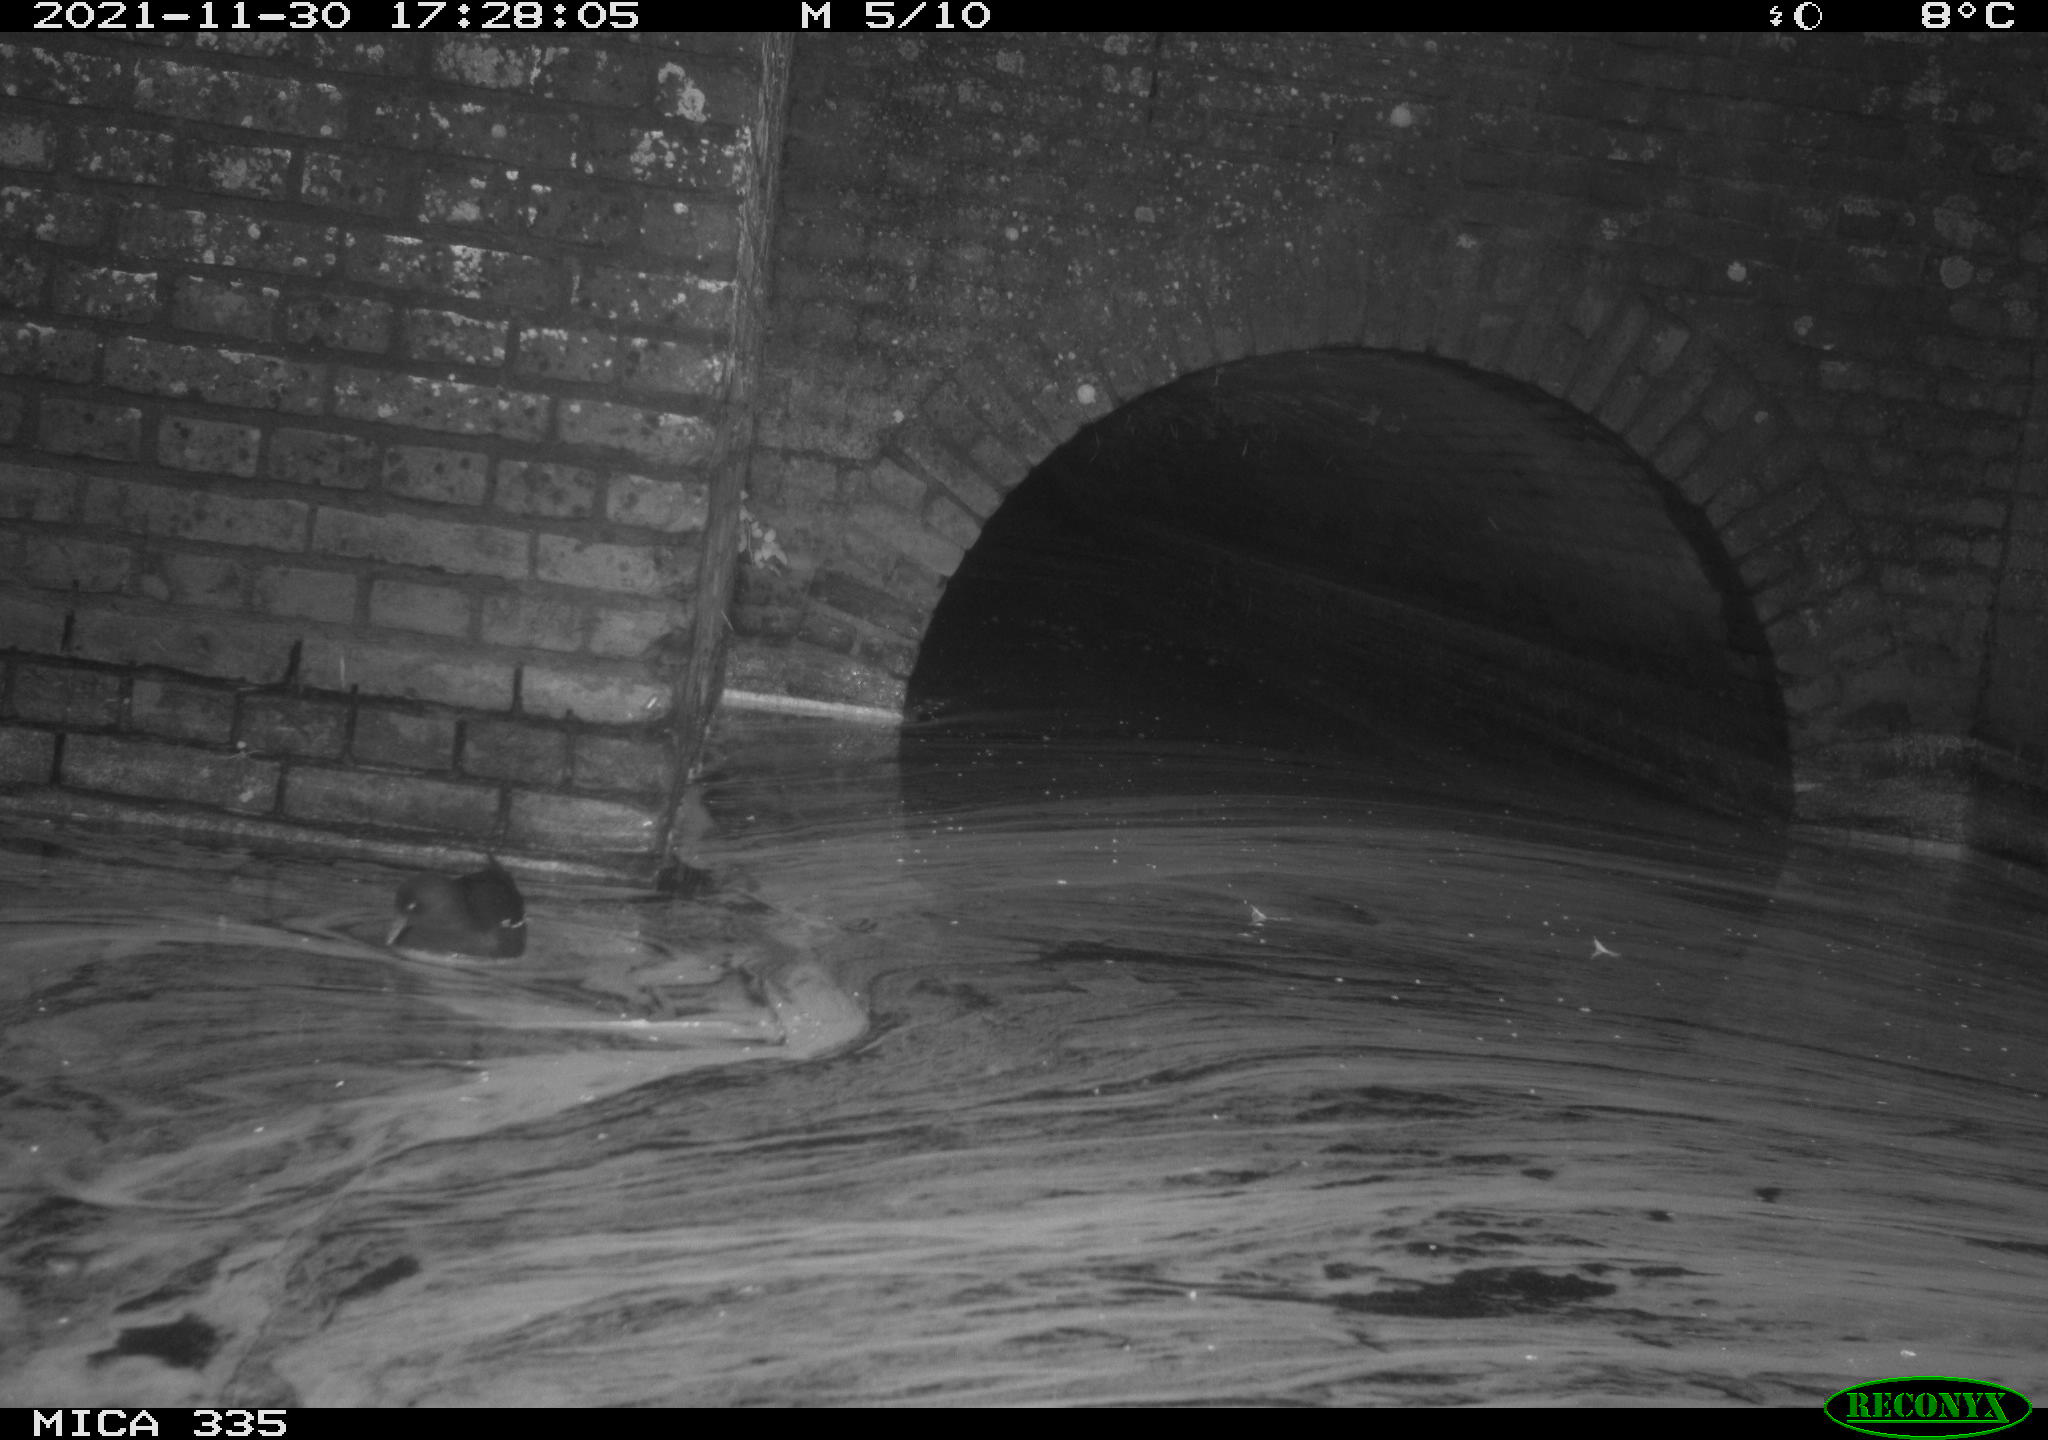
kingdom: Animalia
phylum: Chordata
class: Aves
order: Gruiformes
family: Rallidae
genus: Gallinula
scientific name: Gallinula chloropus
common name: Common moorhen
